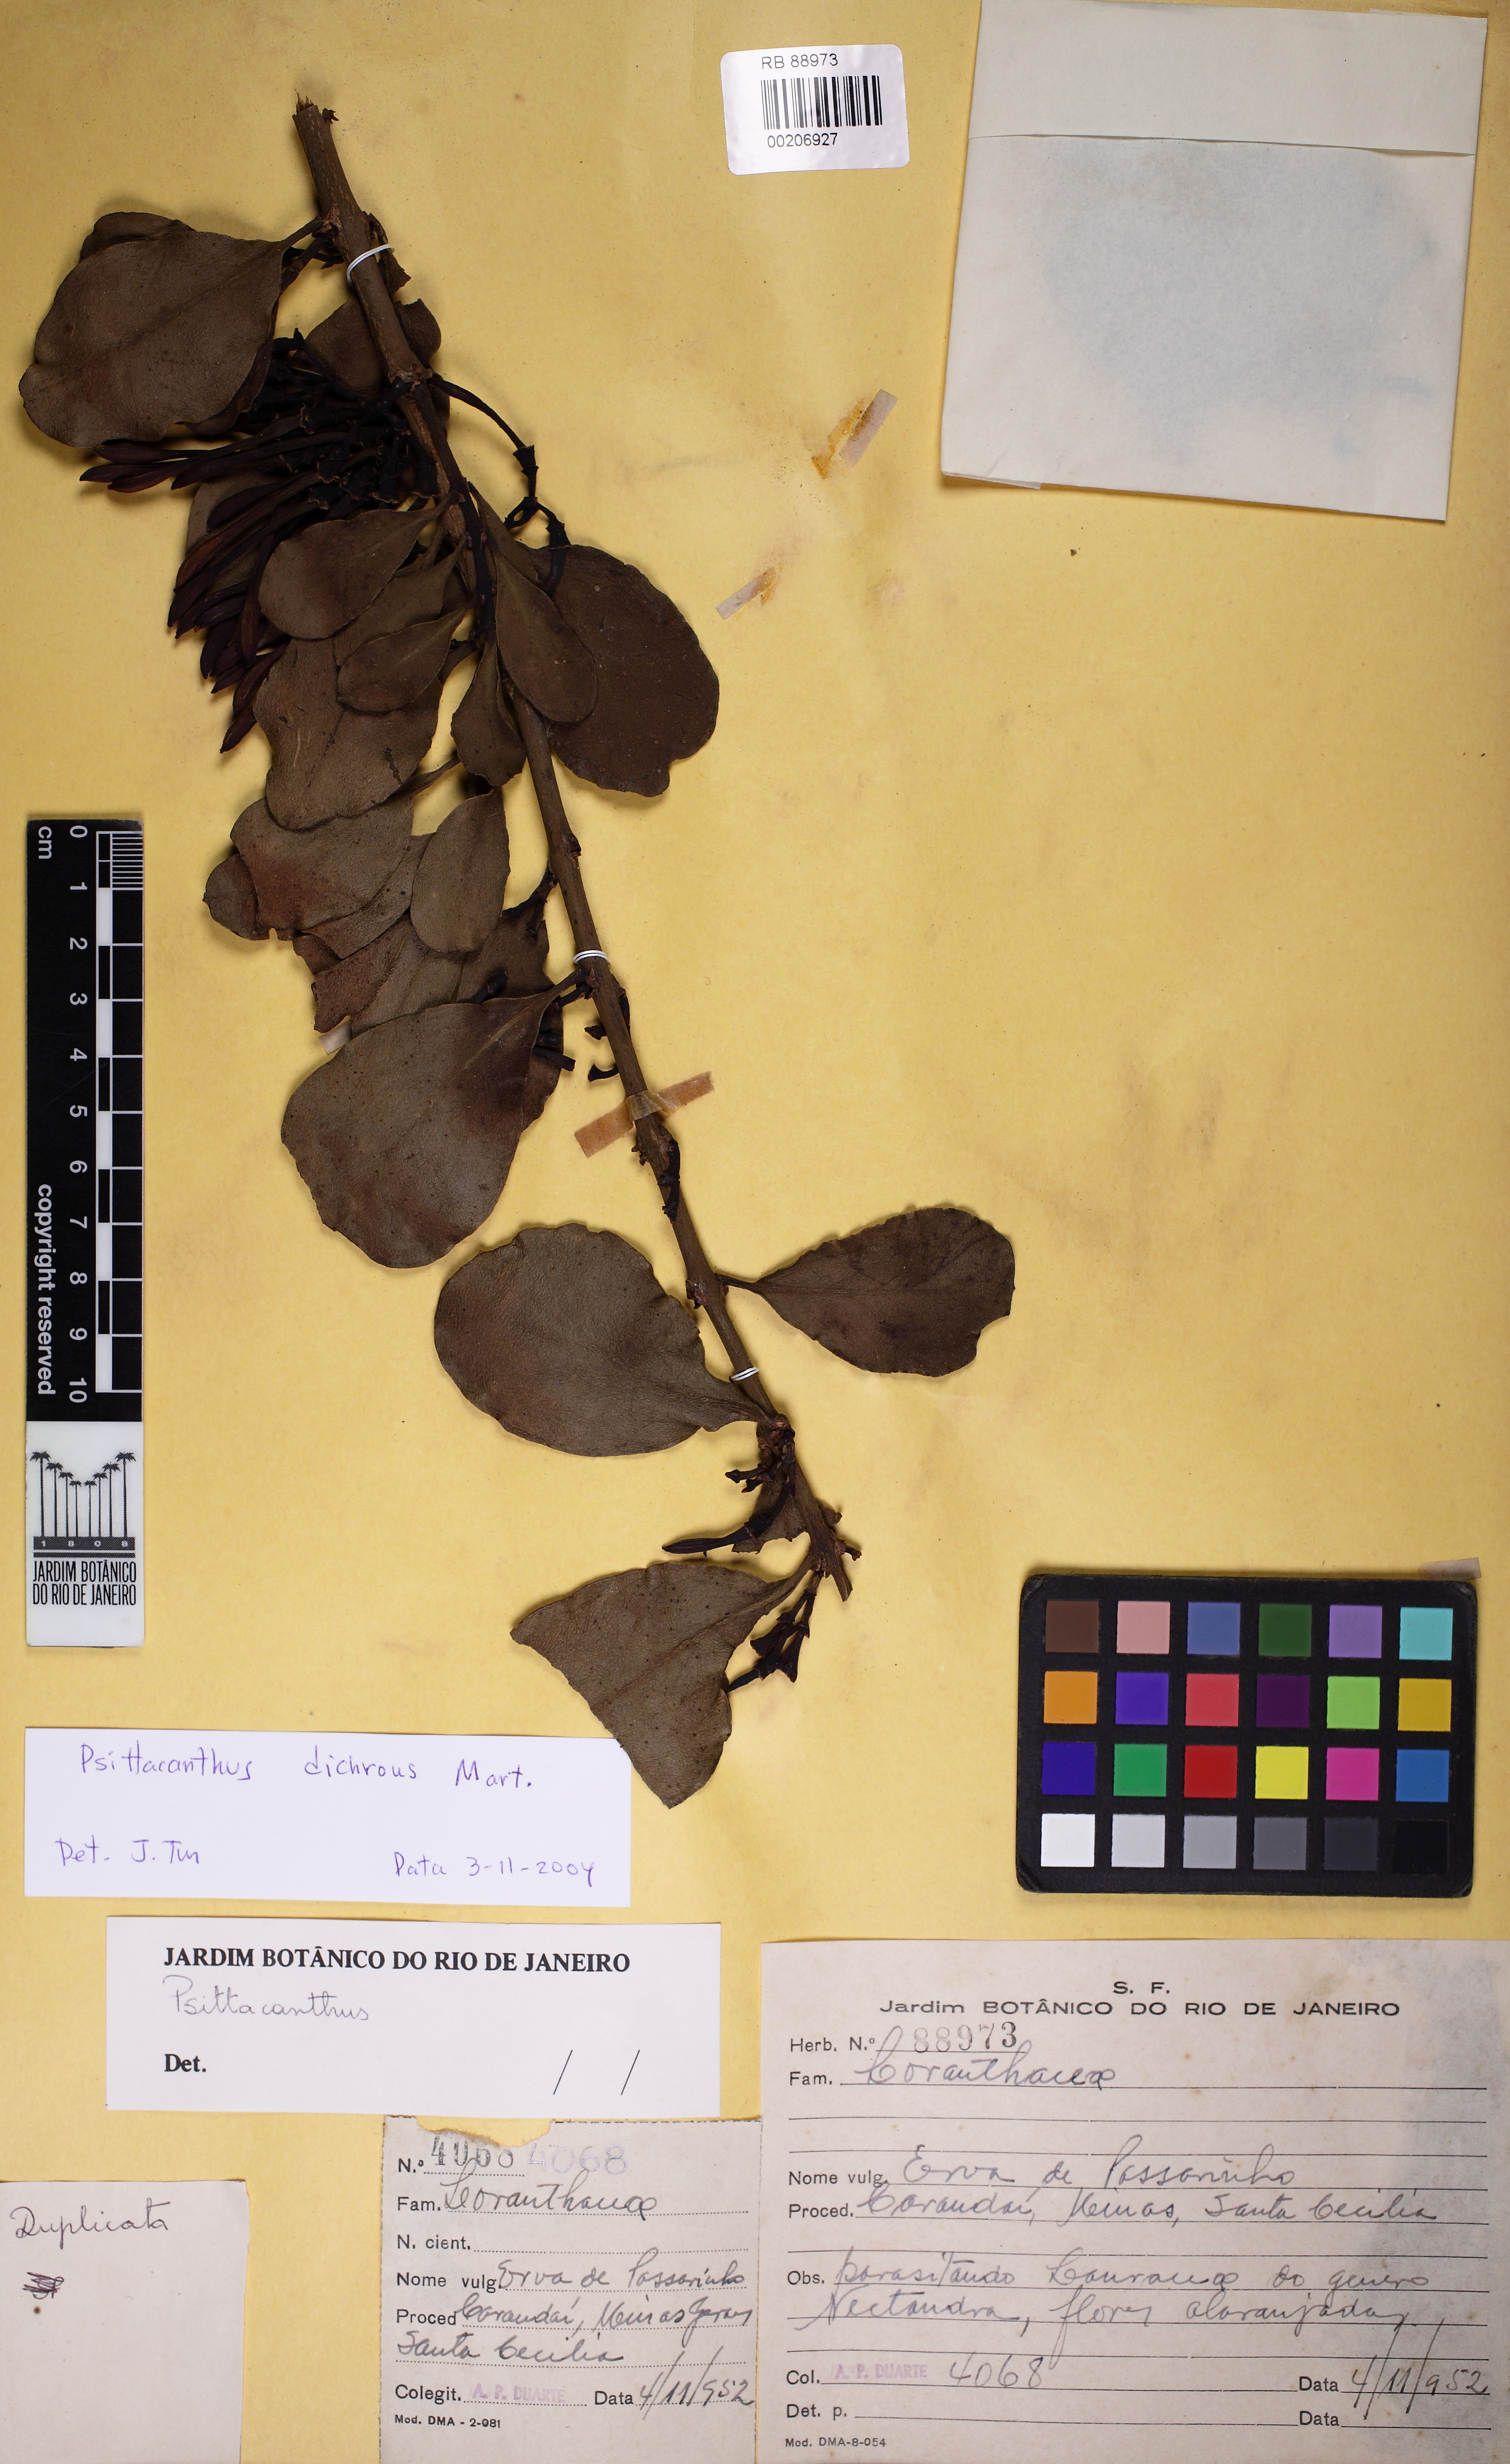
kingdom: Plantae
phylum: Tracheophyta
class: Magnoliopsida
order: Santalales
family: Loranthaceae
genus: Psittacanthus
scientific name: Psittacanthus dichroos
